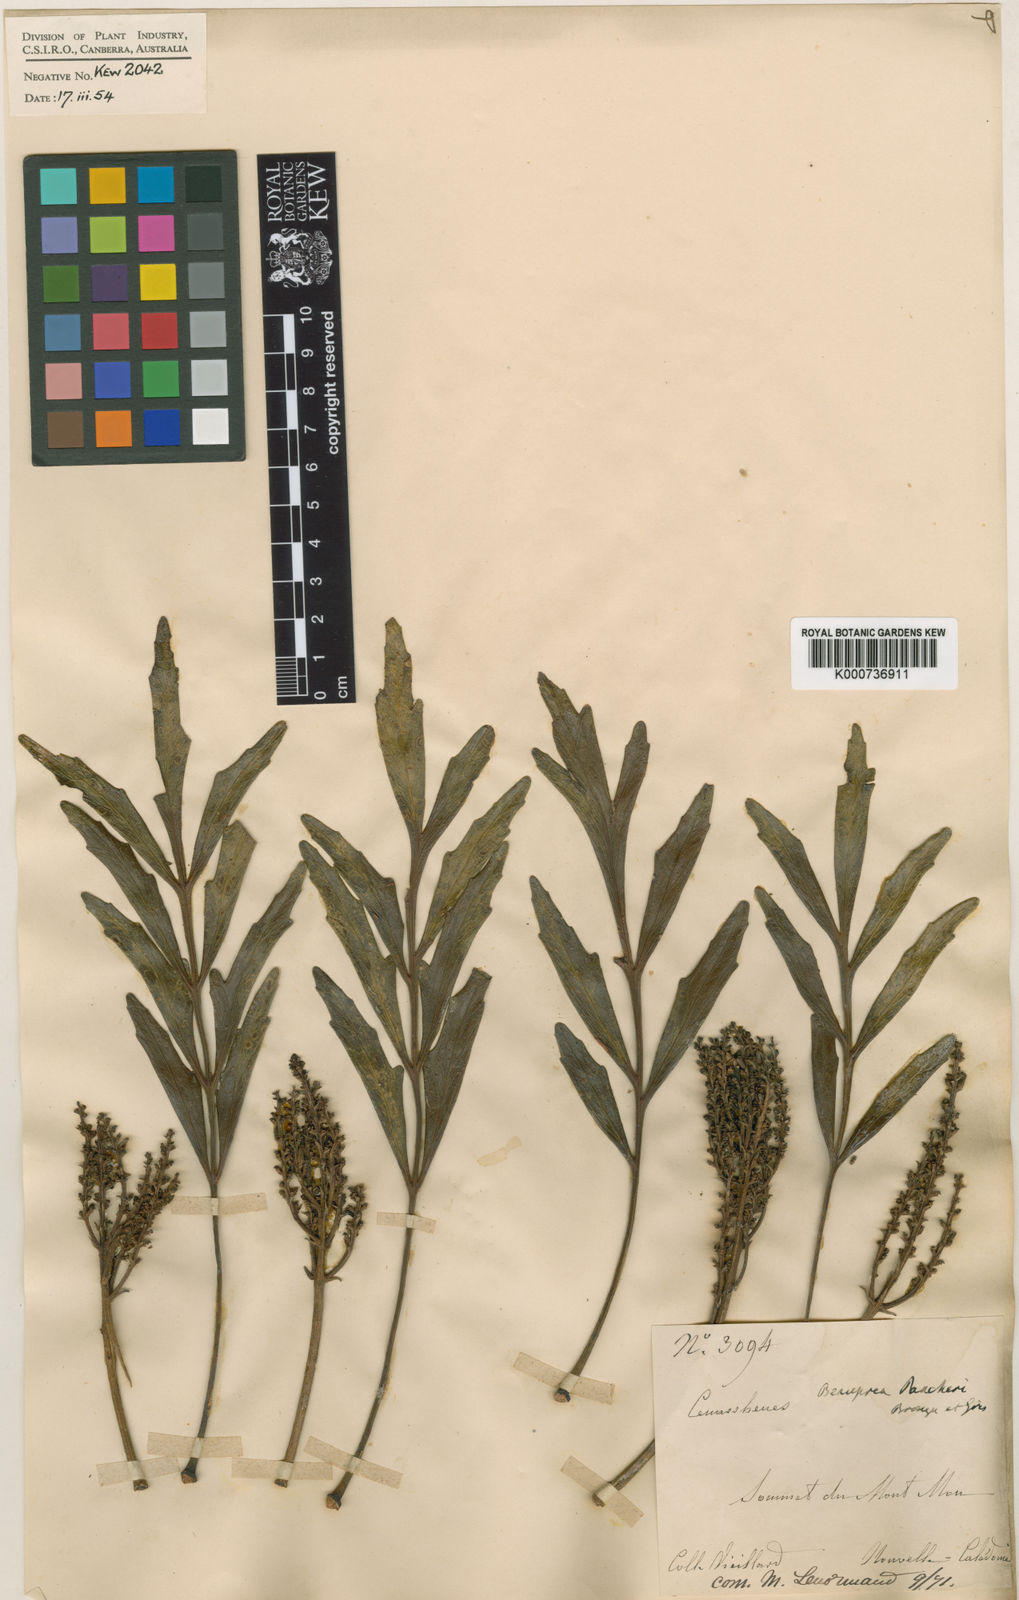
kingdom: Plantae
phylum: Tracheophyta
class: Magnoliopsida
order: Proteales
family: Proteaceae
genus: Beauprea
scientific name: Beauprea pancheri
